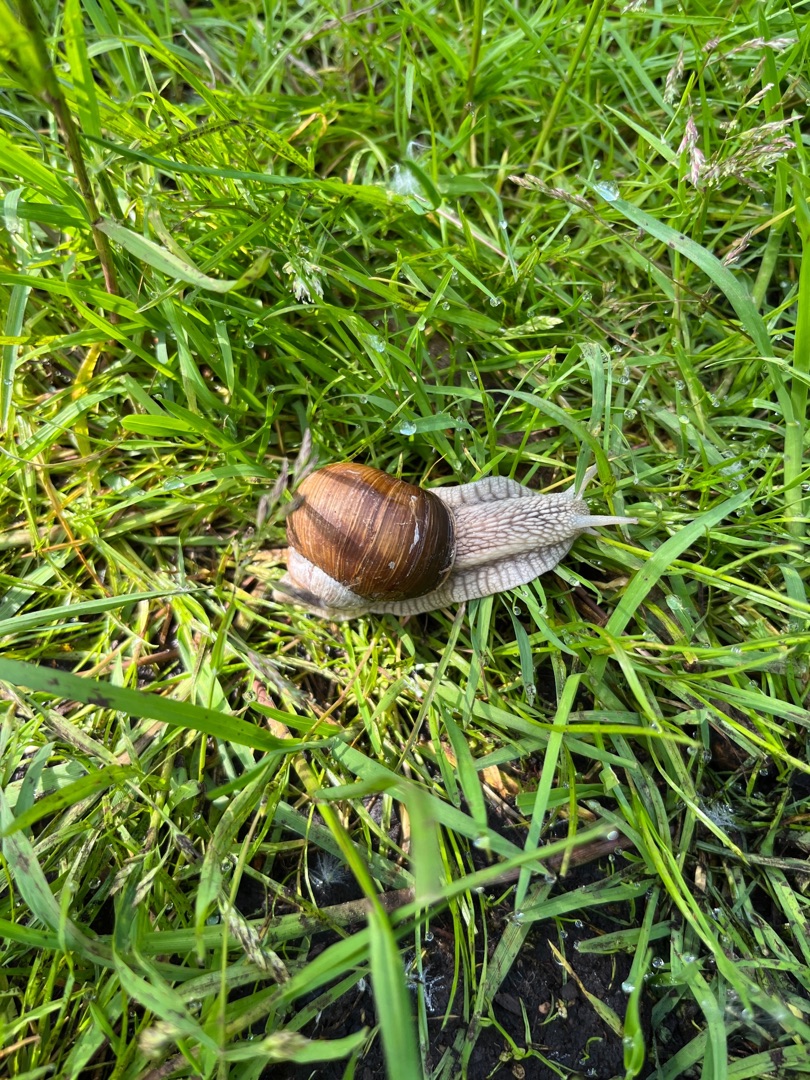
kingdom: Animalia
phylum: Mollusca
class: Gastropoda
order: Stylommatophora
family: Helicidae
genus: Helix
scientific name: Helix pomatia
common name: Vinbjergsnegl
